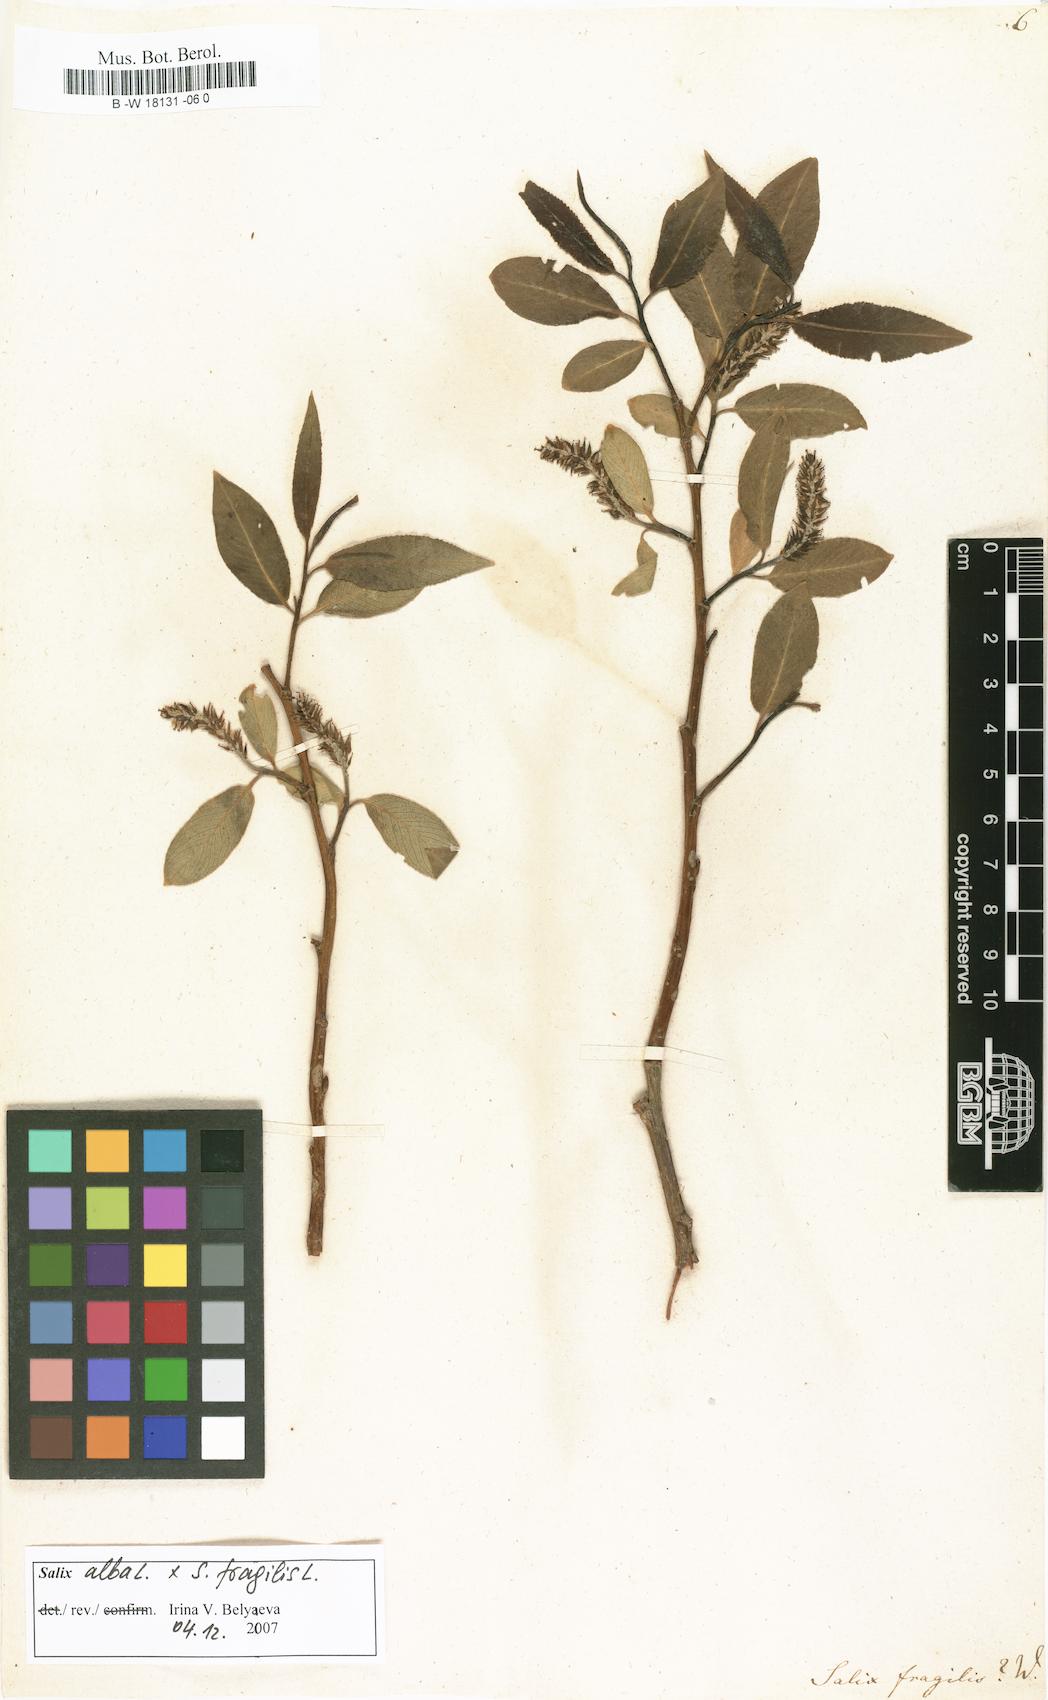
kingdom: Plantae
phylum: Tracheophyta
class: Magnoliopsida
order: Malpighiales
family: Salicaceae
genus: Salix
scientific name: Salix fragilis
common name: Crack willow
